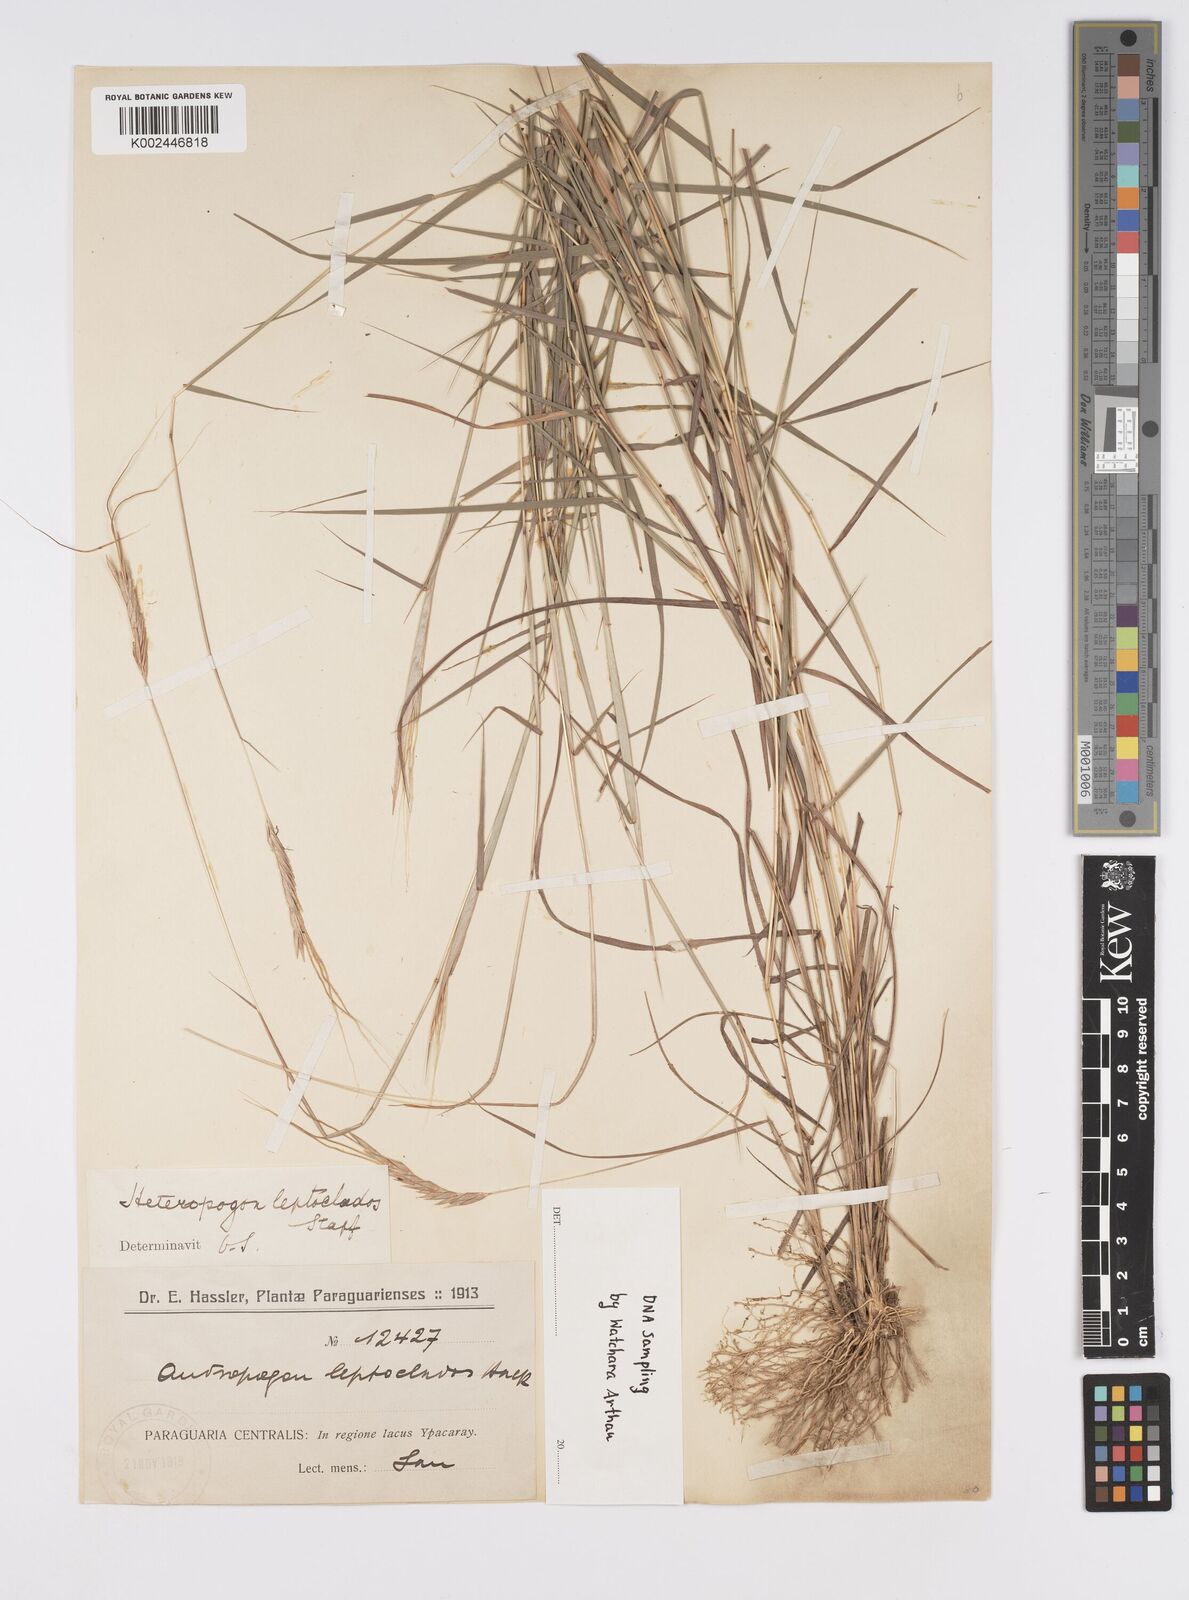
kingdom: Plantae
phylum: Tracheophyta
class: Liliopsida
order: Poales
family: Poaceae
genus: Agenium
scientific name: Agenium leptocladum
